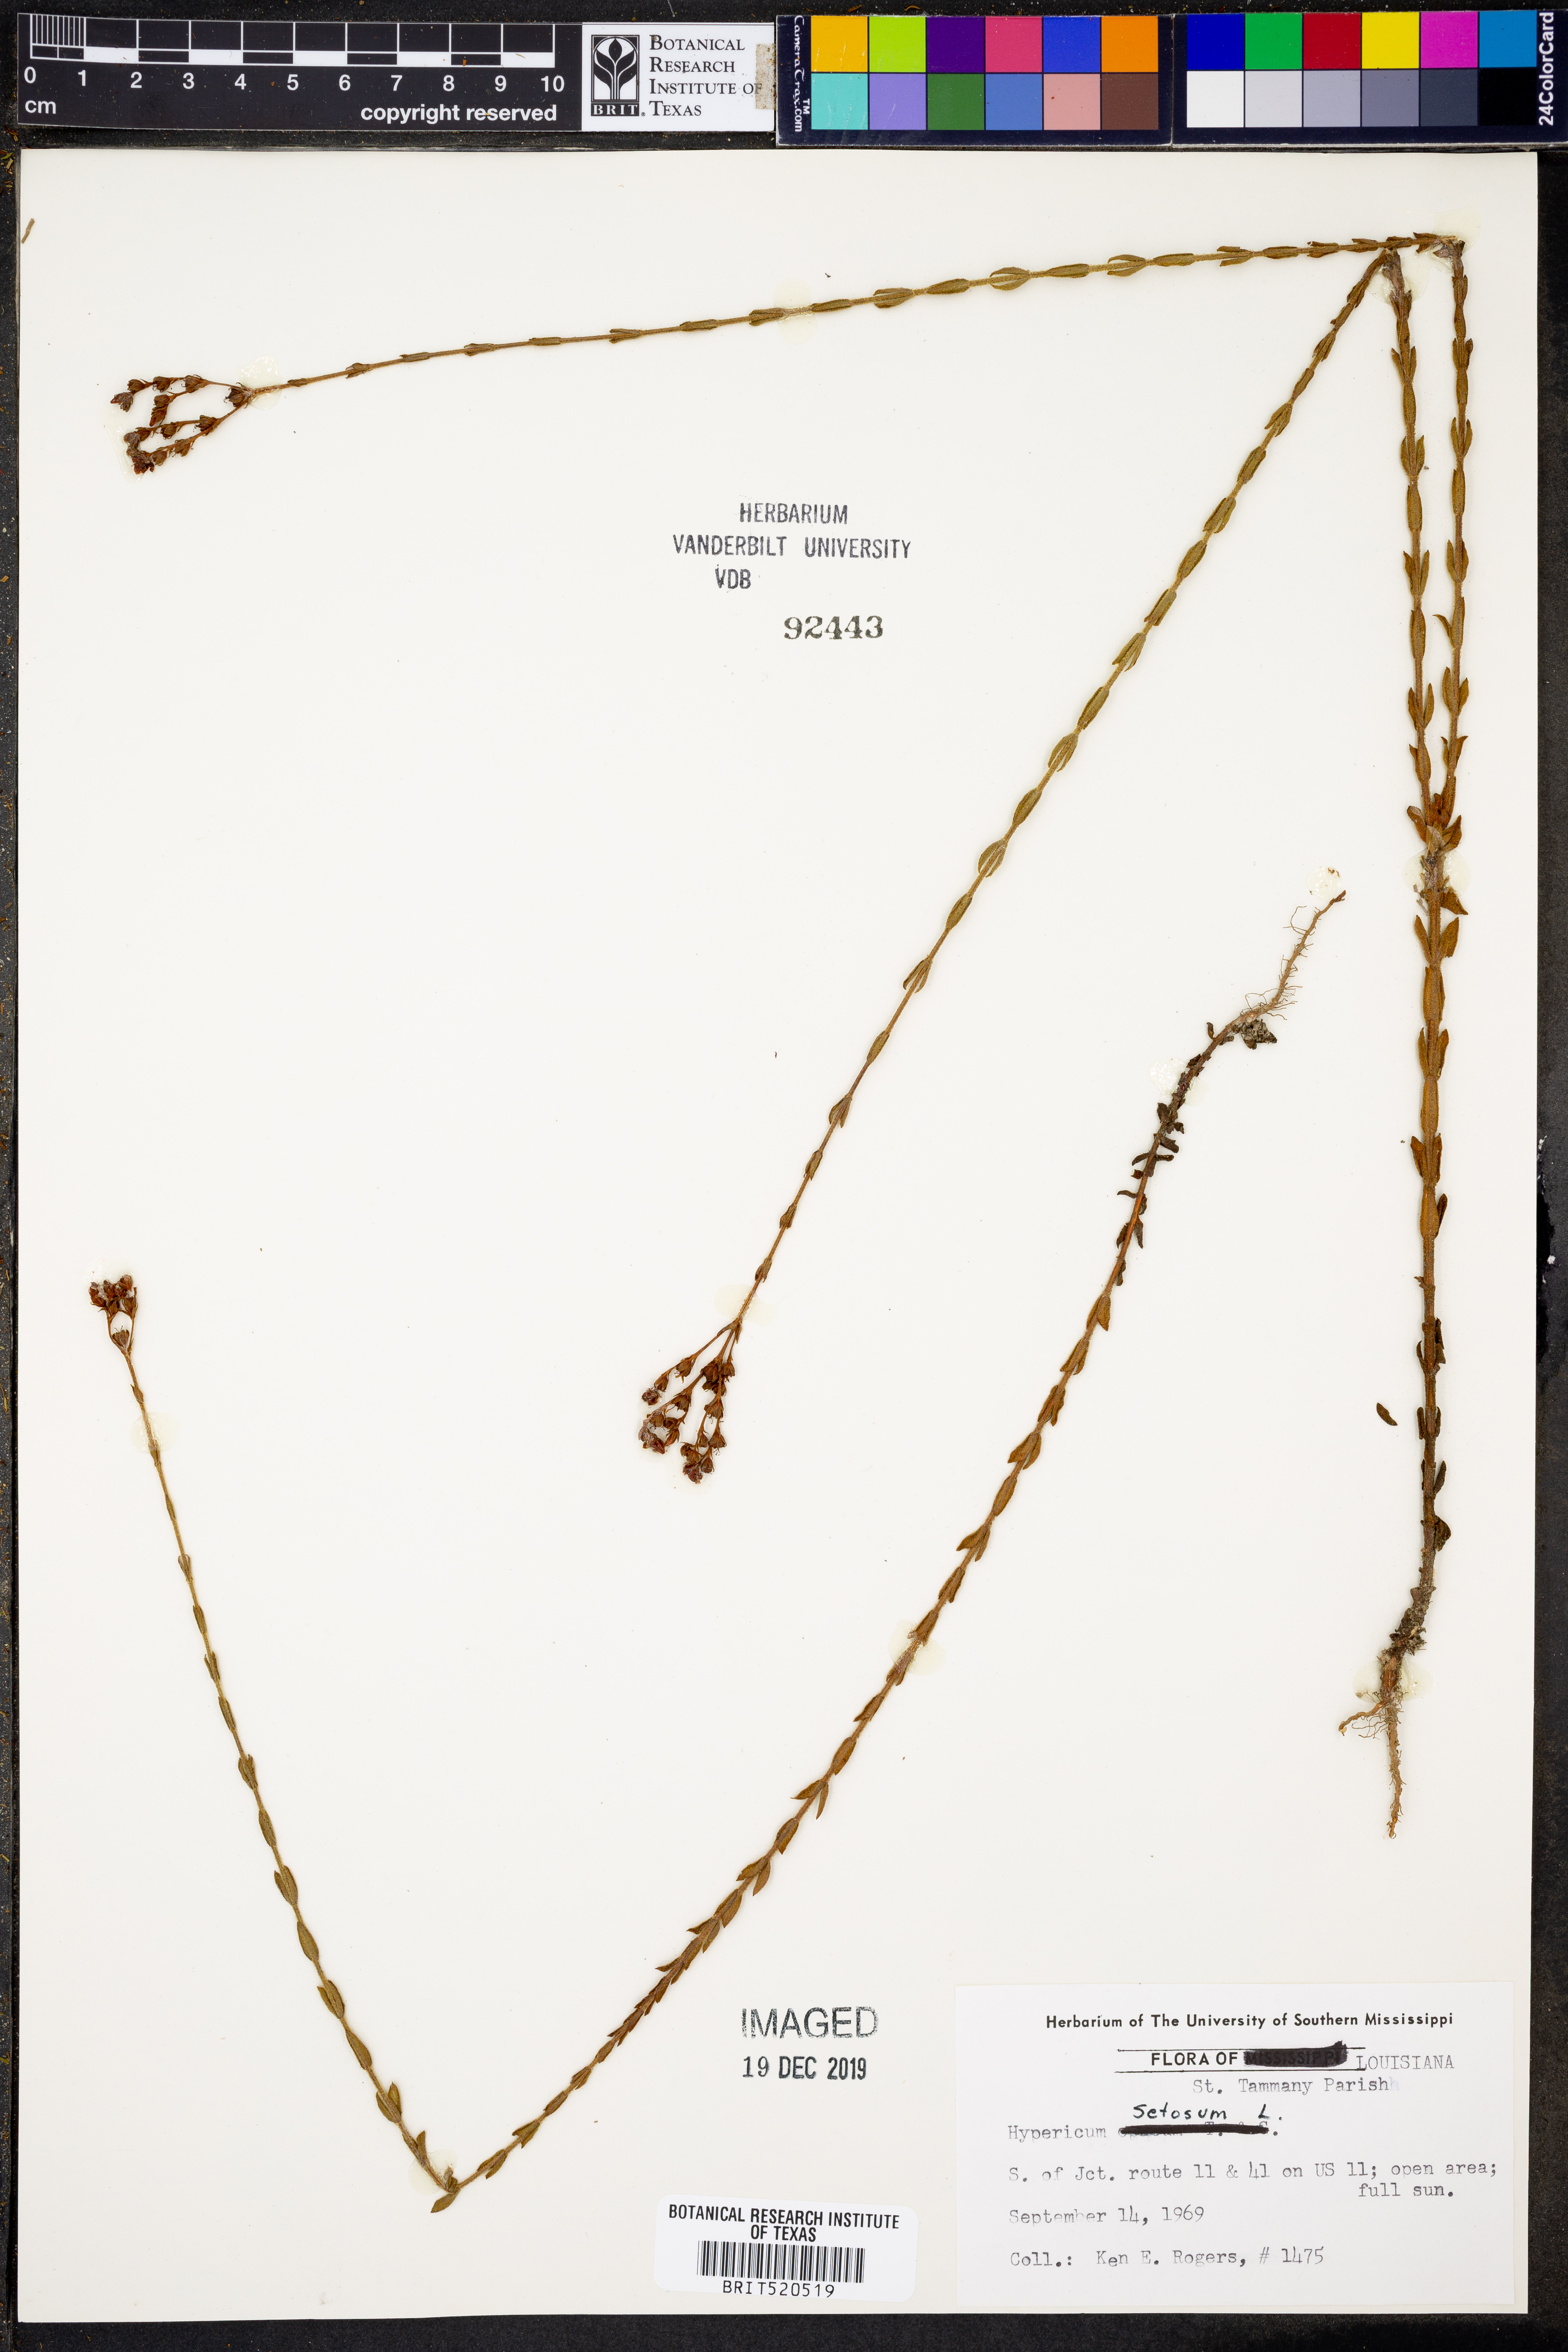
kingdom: Plantae
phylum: Tracheophyta
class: Magnoliopsida
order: Malpighiales
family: Hypericaceae
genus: Hypericum
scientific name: Hypericum setosum
